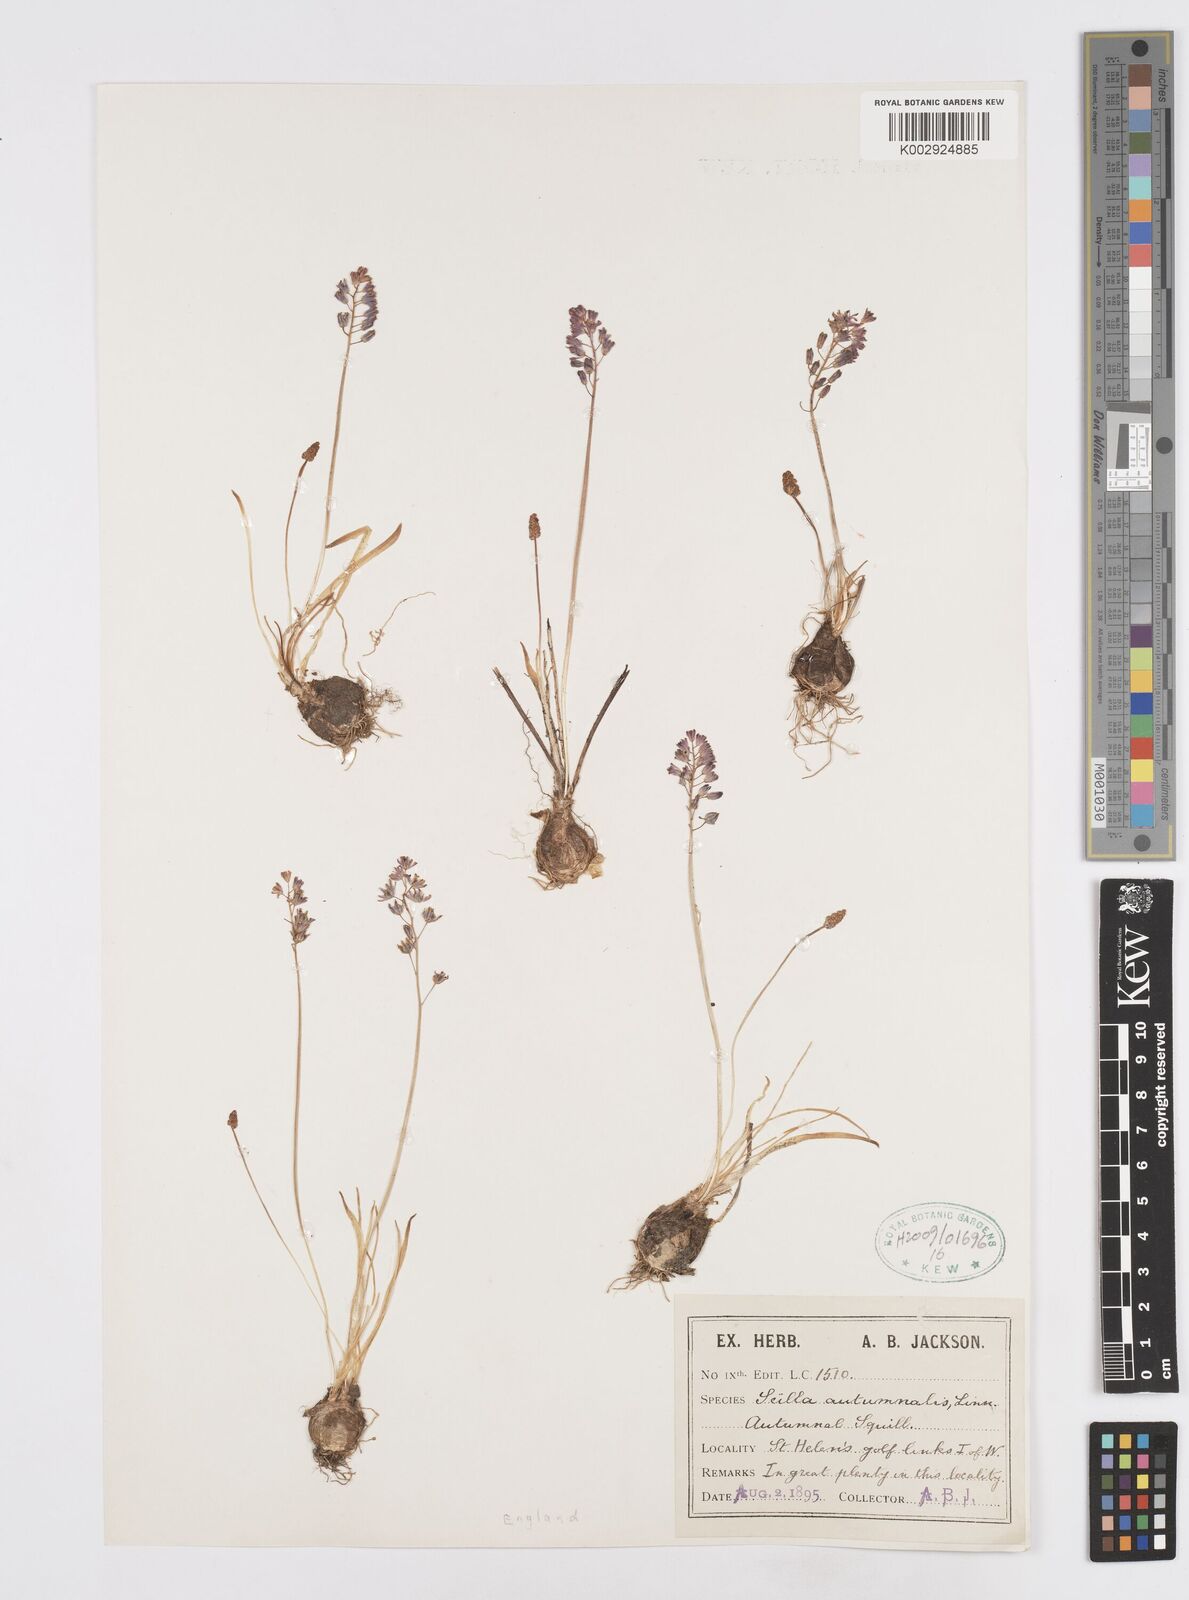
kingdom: Plantae
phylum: Tracheophyta
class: Liliopsida
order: Asparagales
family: Asparagaceae
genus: Prospero
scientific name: Prospero autumnale
